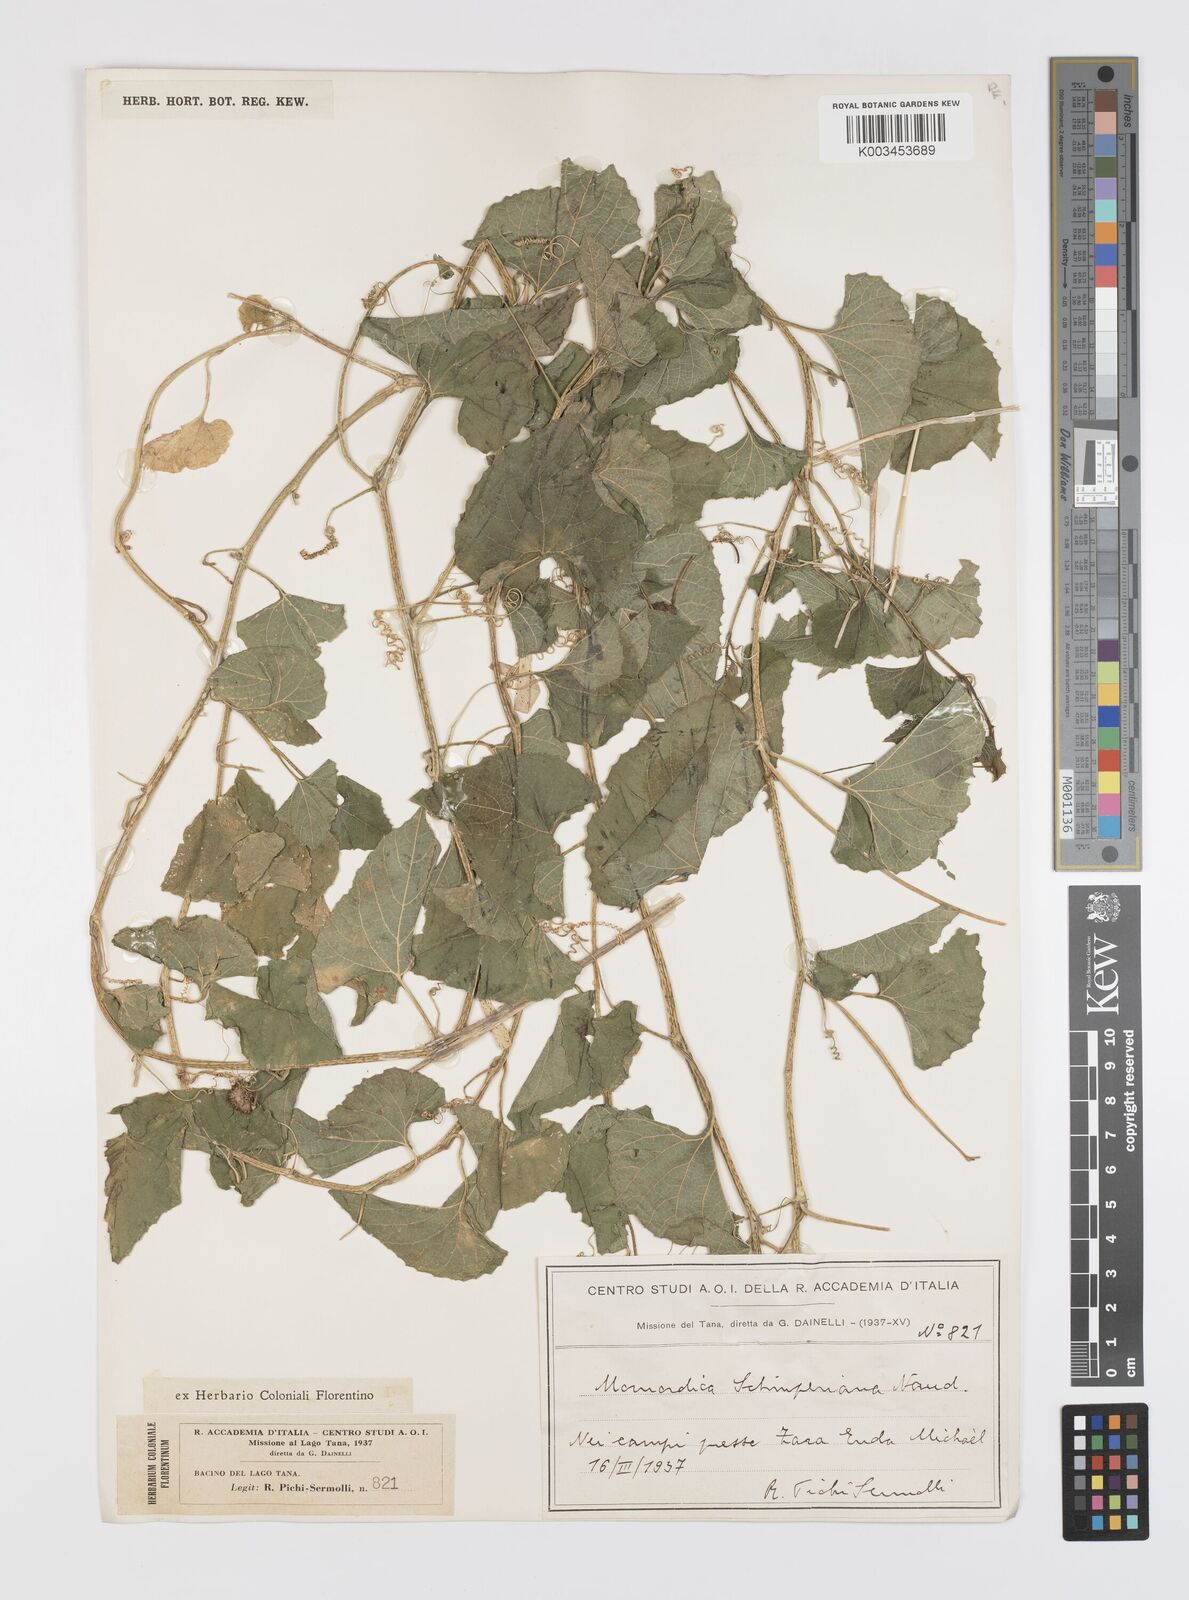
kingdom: Plantae
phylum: Tracheophyta
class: Magnoliopsida
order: Cucurbitales
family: Cucurbitaceae
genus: Momordica
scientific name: Momordica foetida
